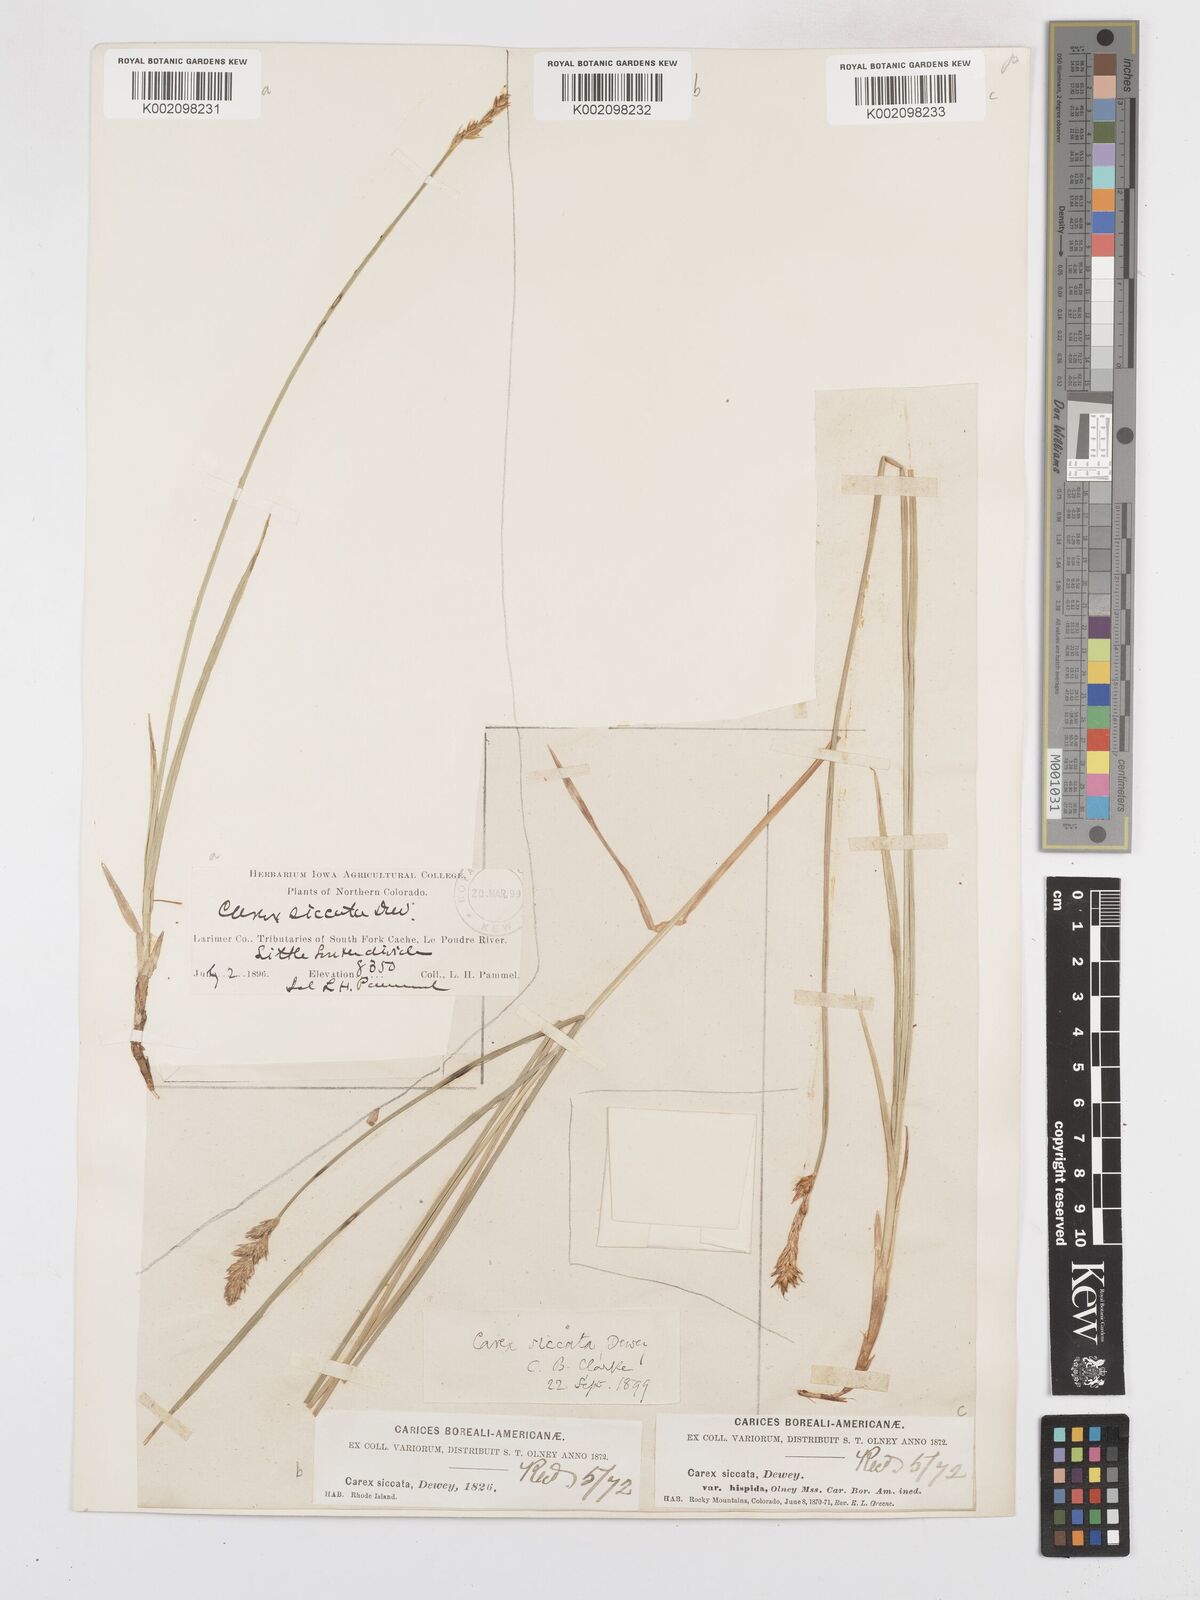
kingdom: Plantae
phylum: Tracheophyta
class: Liliopsida
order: Poales
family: Cyperaceae
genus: Carex
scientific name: Carex foenea
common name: Bronze sedge
